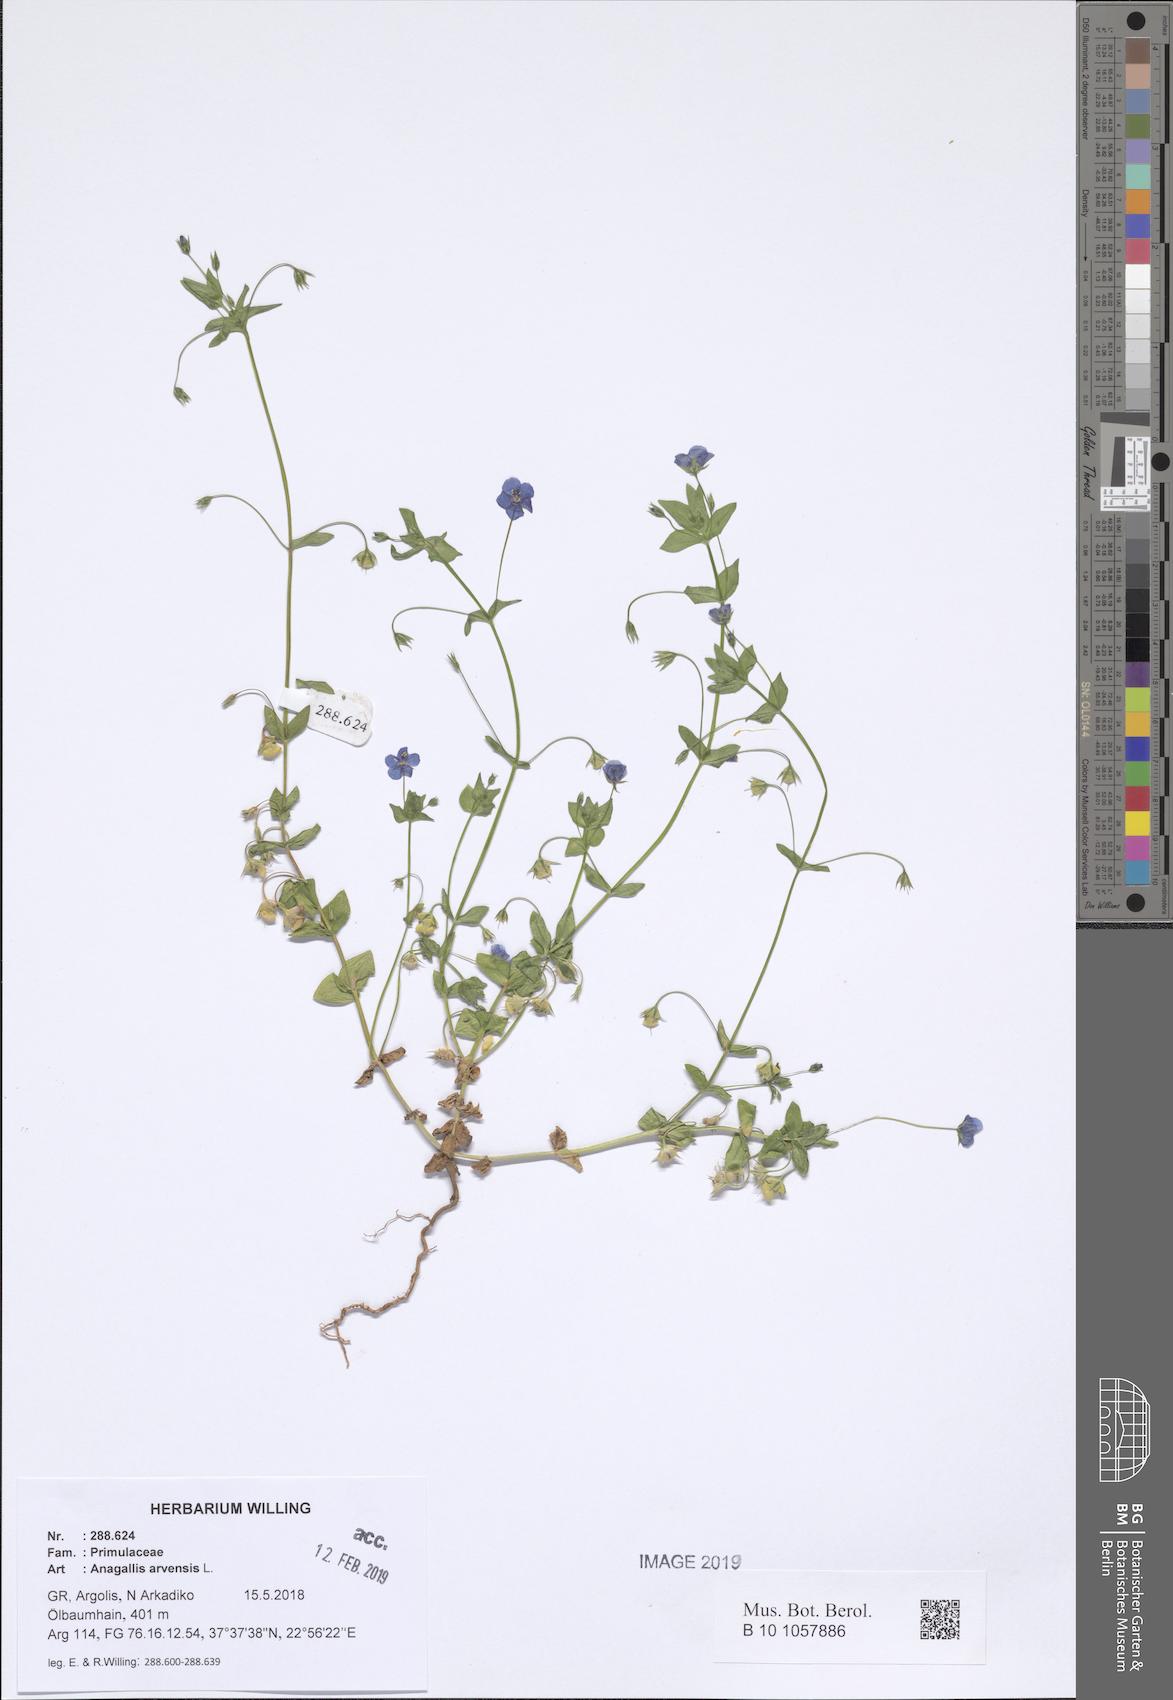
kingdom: Plantae
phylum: Tracheophyta
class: Magnoliopsida
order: Ericales
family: Primulaceae
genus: Lysimachia
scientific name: Lysimachia arvensis
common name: Scarlet pimpernel
